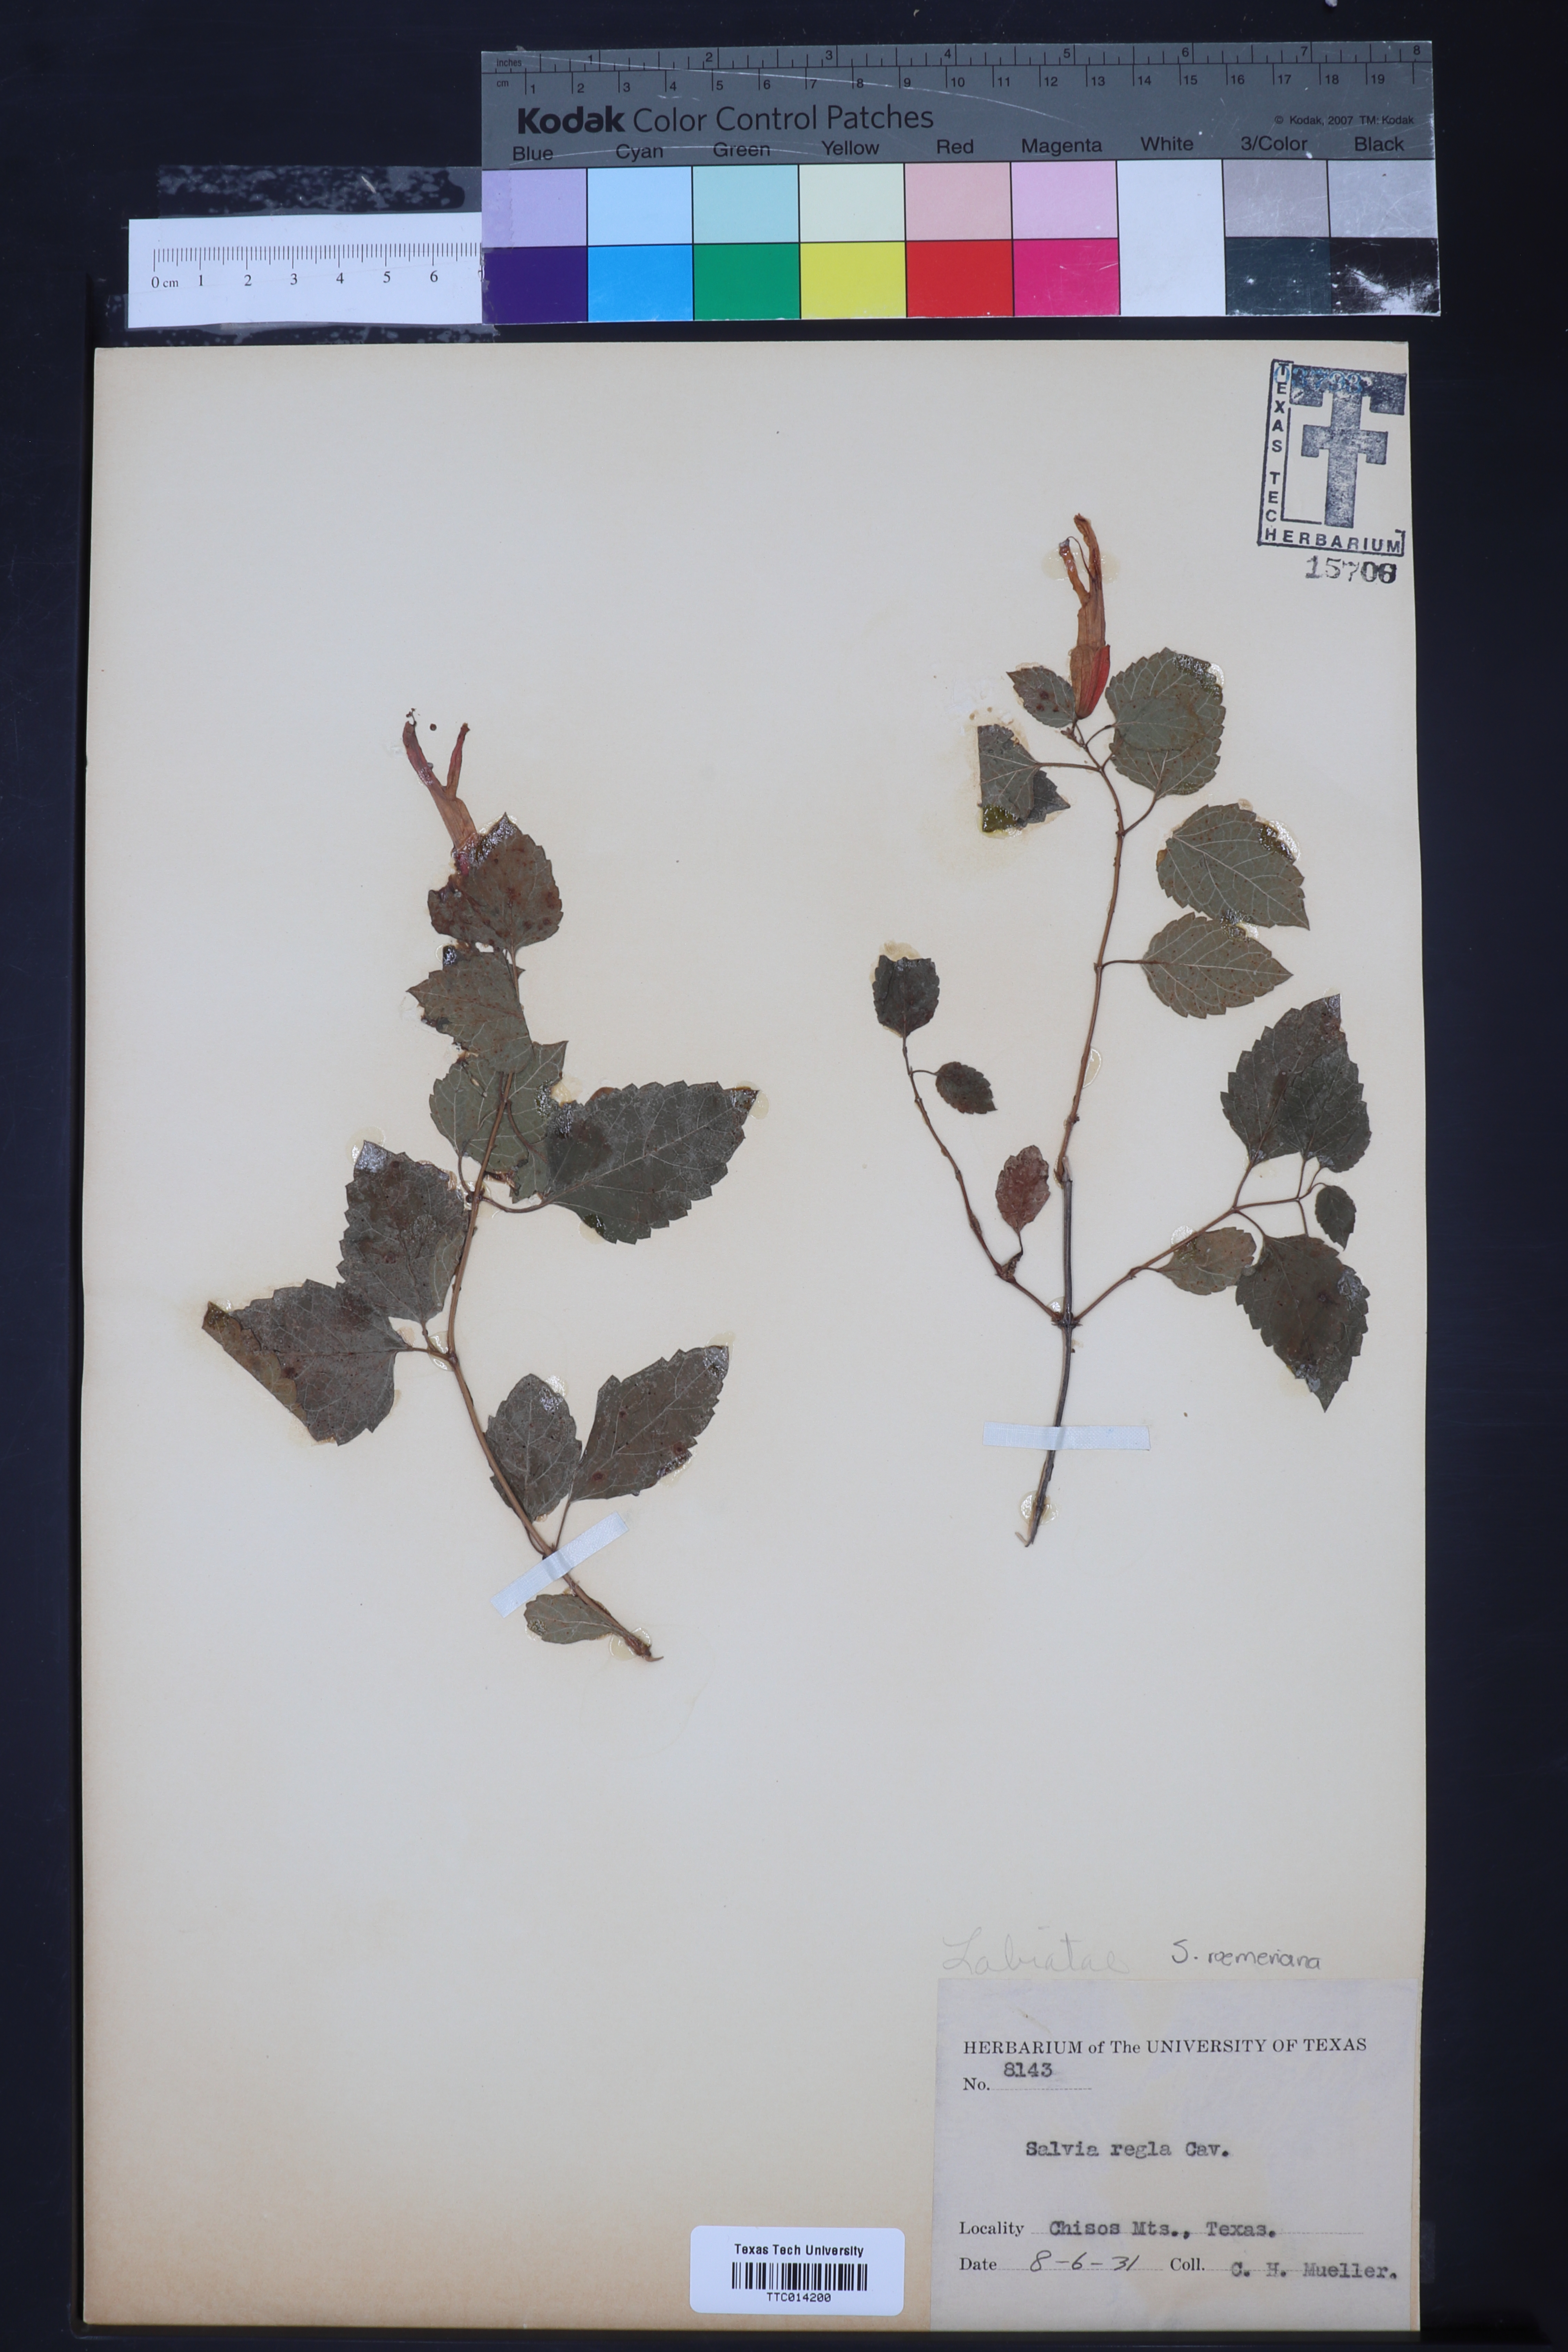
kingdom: Plantae
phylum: Tracheophyta
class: Magnoliopsida
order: Lamiales
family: Lamiaceae
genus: Salvia
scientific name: Salvia regla
